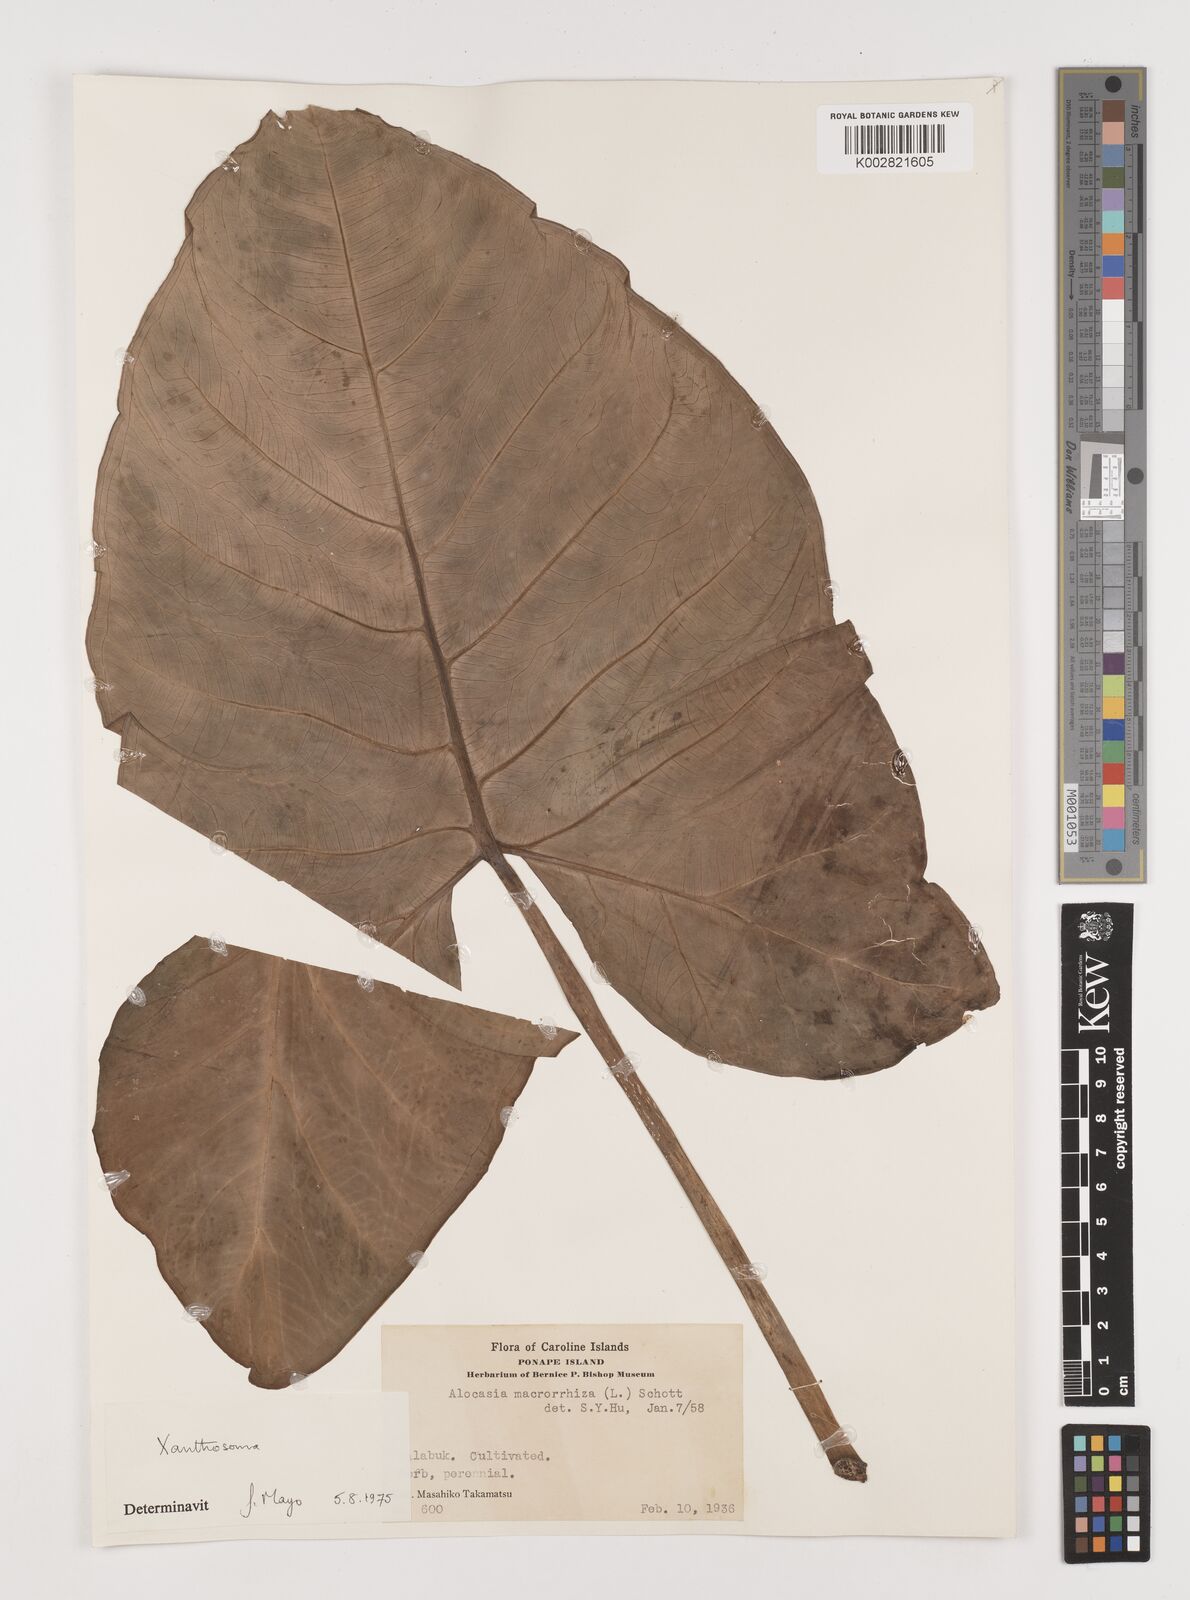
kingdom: Plantae
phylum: Tracheophyta
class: Liliopsida
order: Alismatales
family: Araceae
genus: Xanthosoma
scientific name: Xanthosoma sagittifolium
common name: Arrowleaf elephant's ear
